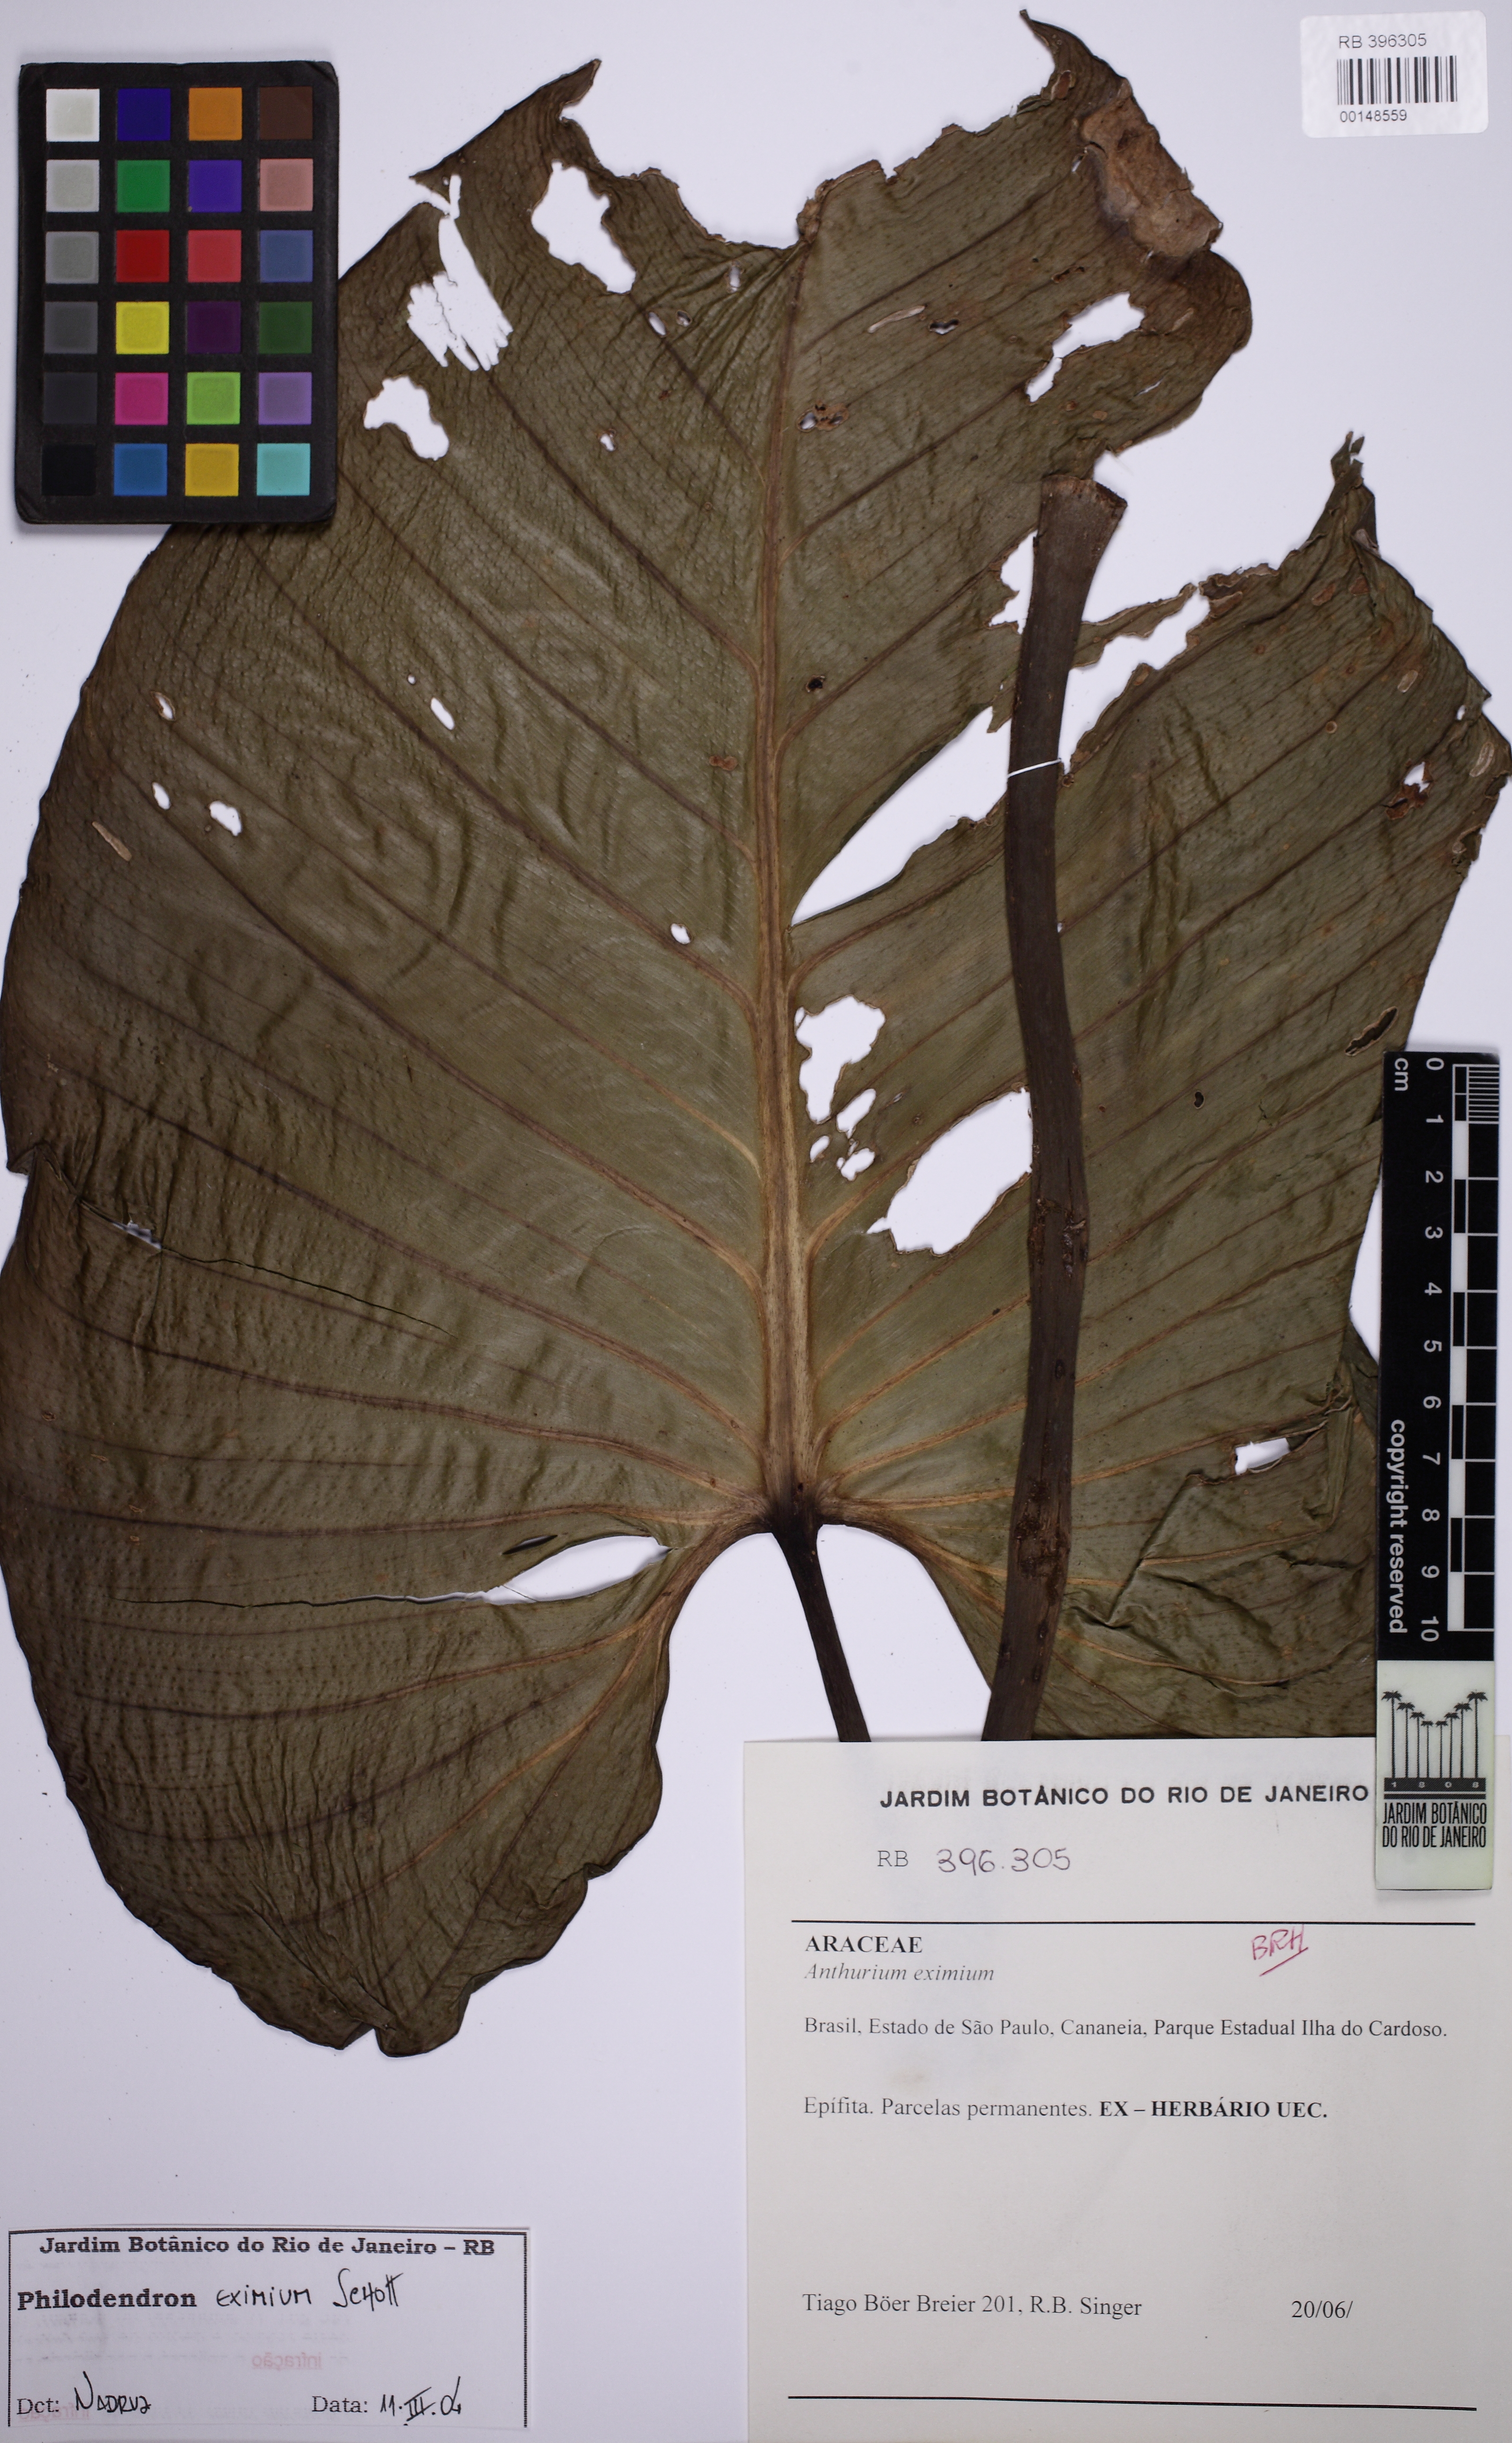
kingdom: Plantae
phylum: Tracheophyta
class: Liliopsida
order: Alismatales
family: Araceae
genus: Philodendron
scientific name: Philodendron eximium
